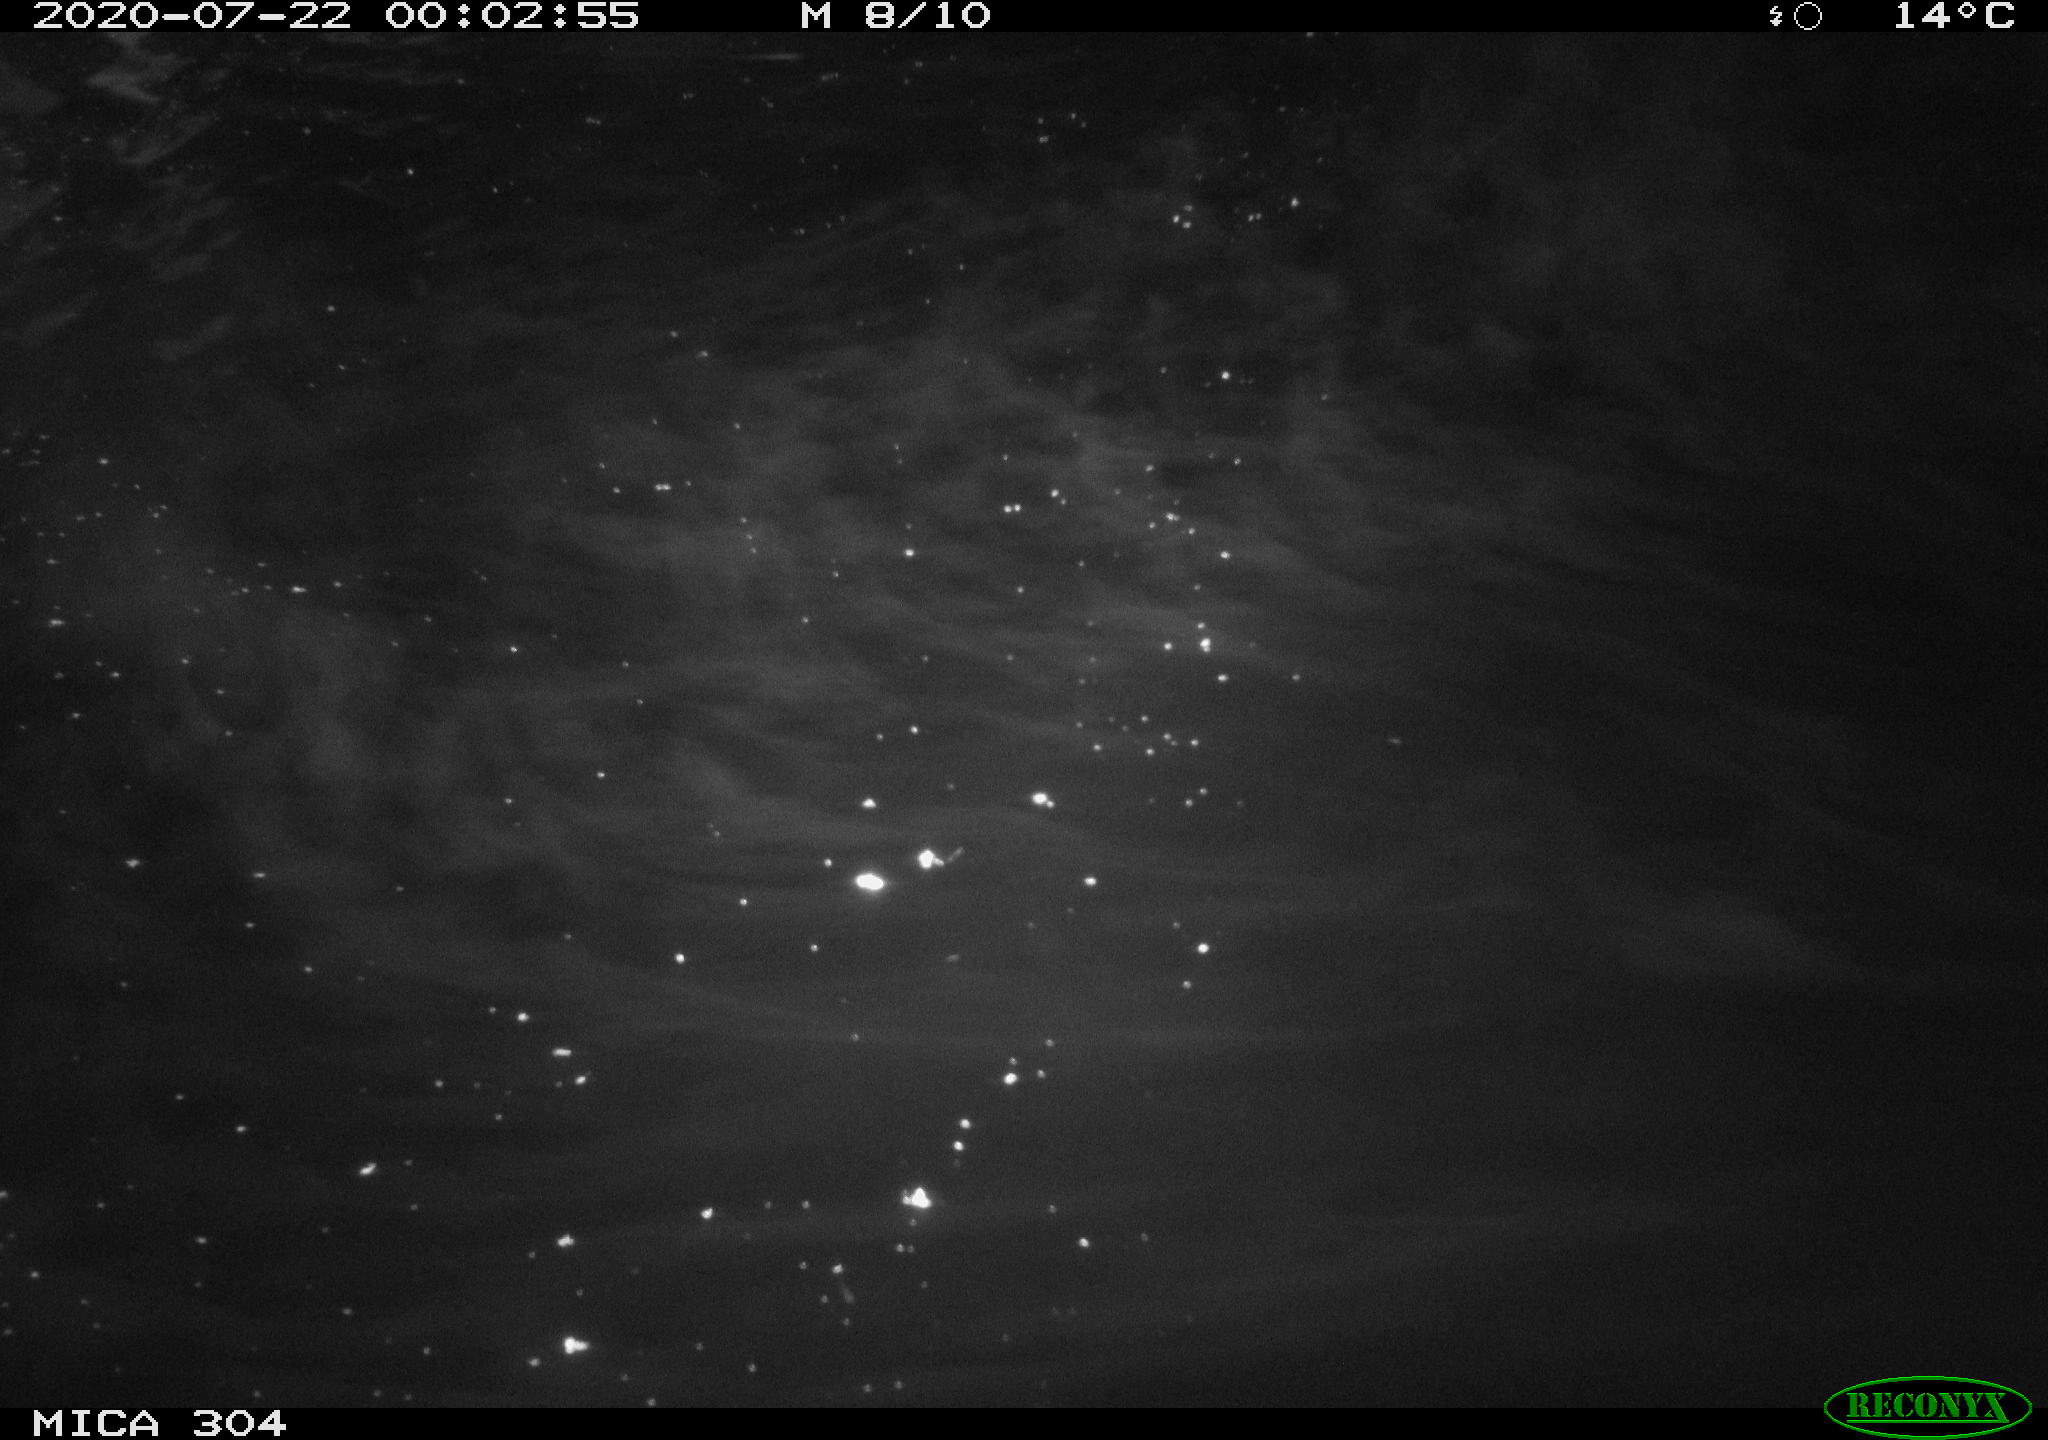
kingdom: Animalia
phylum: Chordata
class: Mammalia
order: Rodentia
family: Cricetidae
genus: Ondatra
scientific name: Ondatra zibethicus
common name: Muskrat
